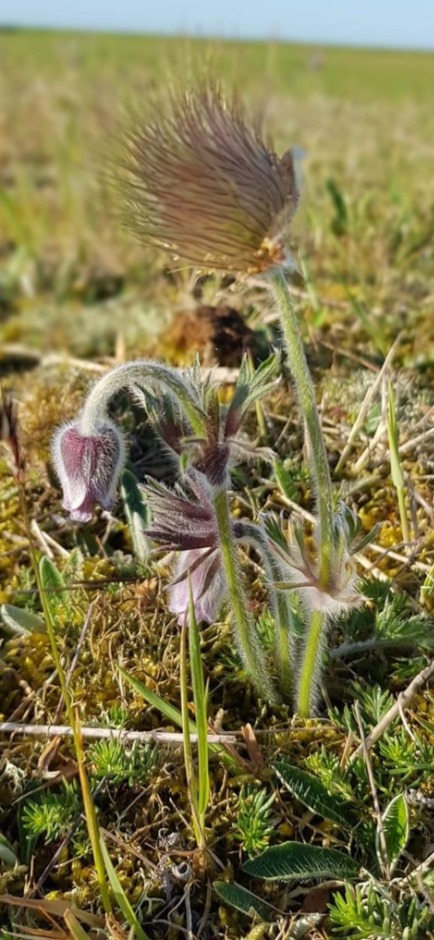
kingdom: Plantae
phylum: Tracheophyta
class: Magnoliopsida
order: Ranunculales
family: Ranunculaceae
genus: Pulsatilla
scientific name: Pulsatilla pratensis
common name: Nikkende kobjælde
